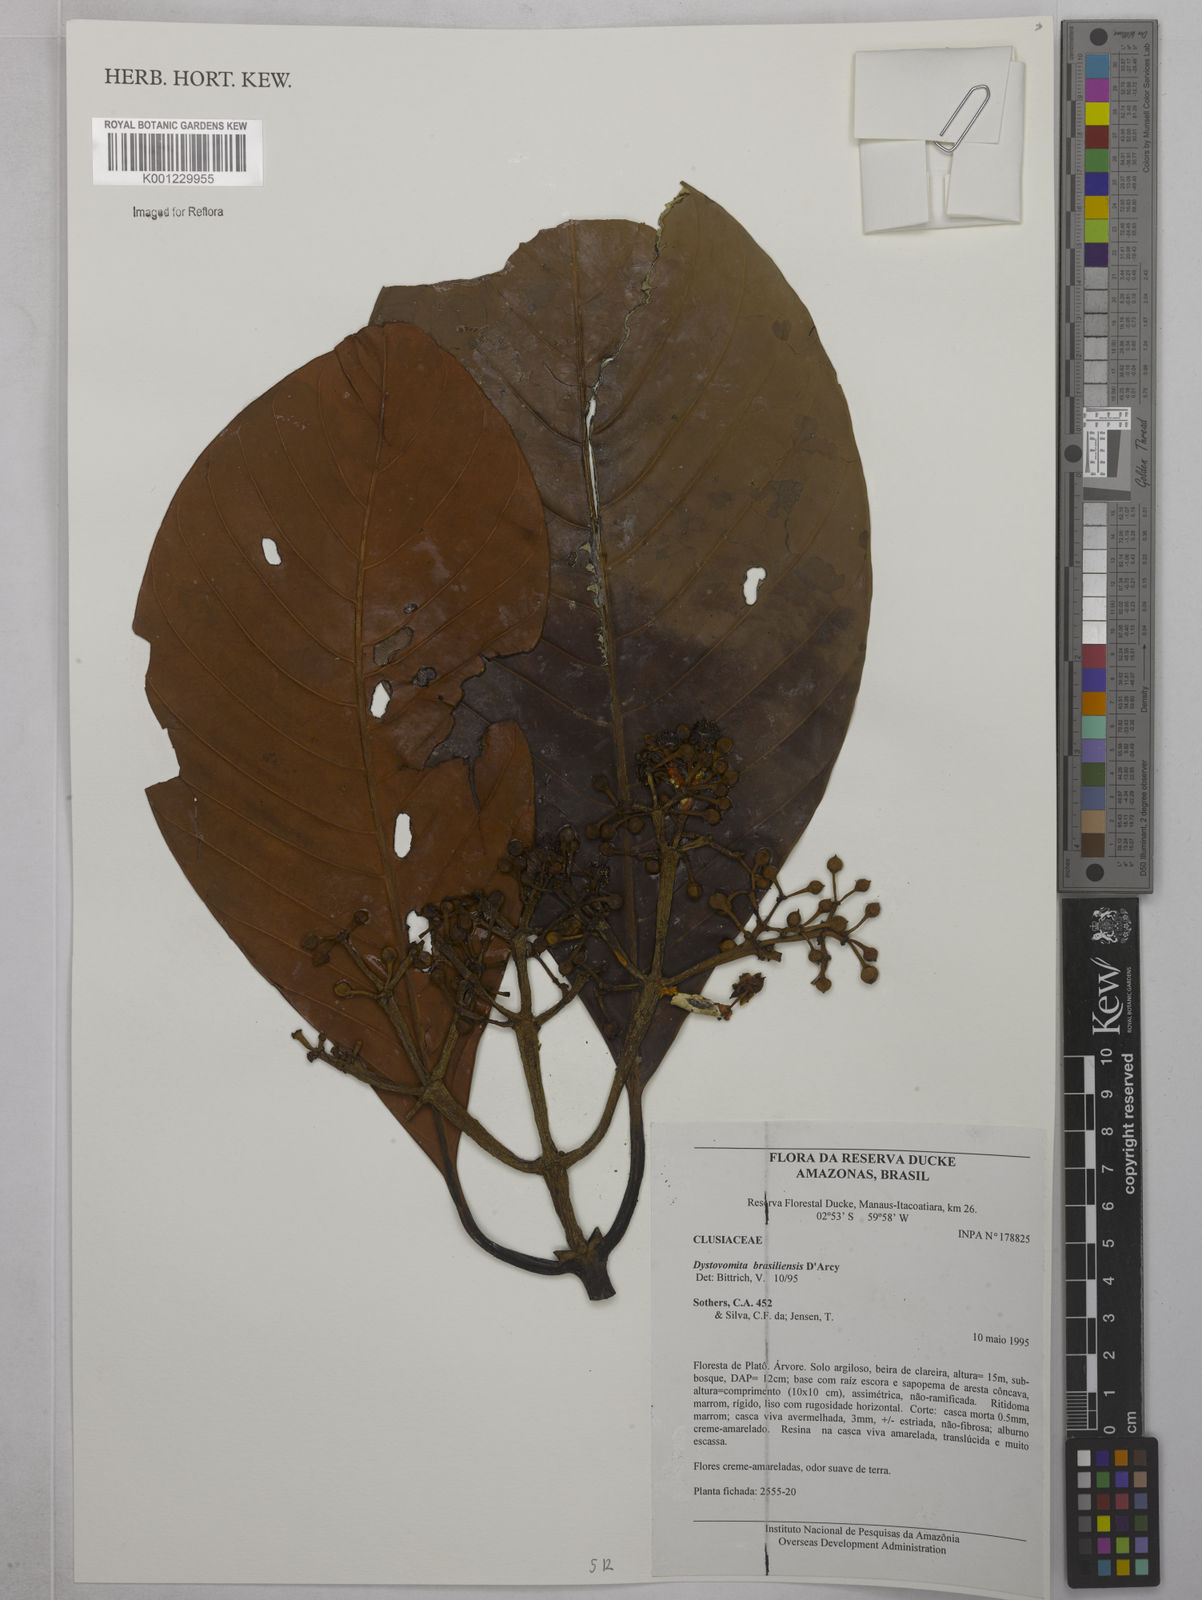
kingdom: Plantae
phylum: Tracheophyta
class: Magnoliopsida
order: Malpighiales
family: Clusiaceae
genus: Tovomita
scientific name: Tovomita hopkinsii
